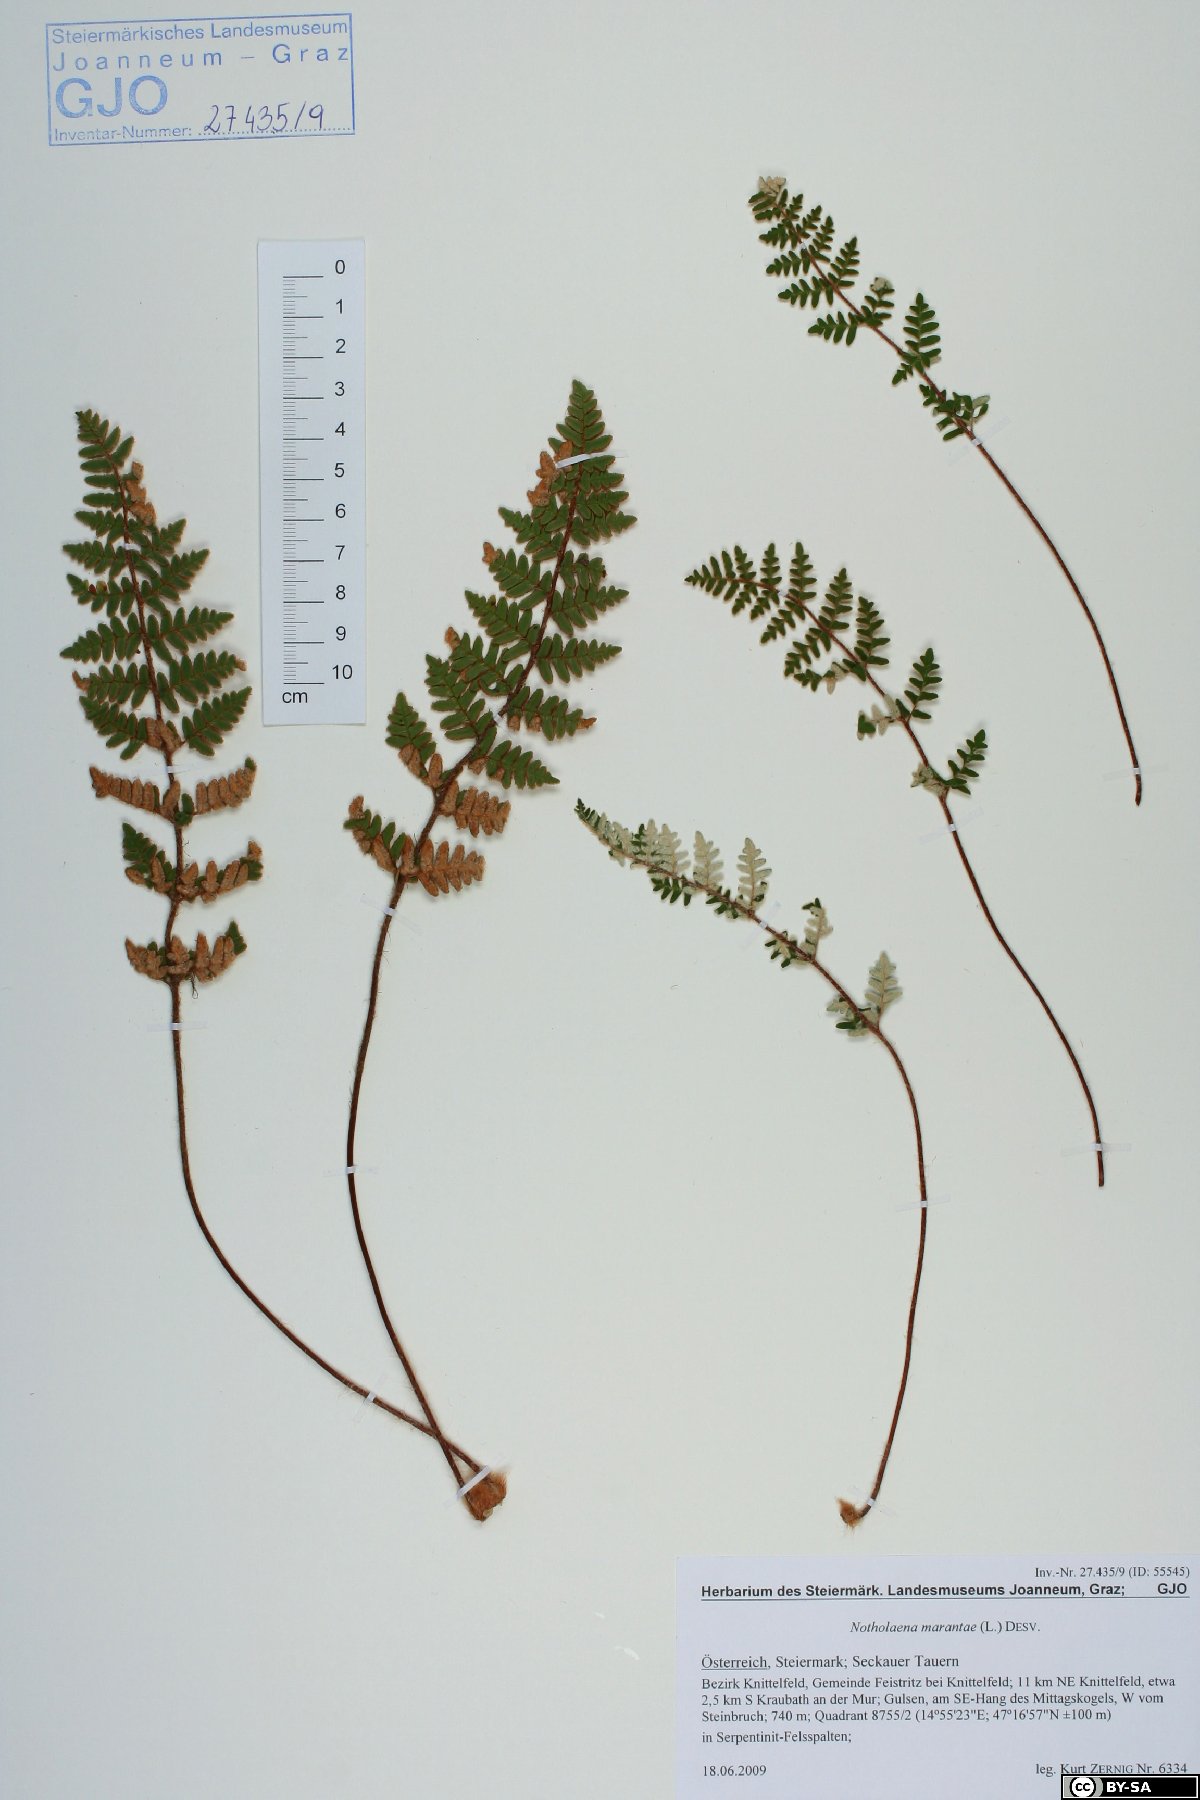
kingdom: Plantae
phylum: Tracheophyta
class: Polypodiopsida
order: Polypodiales
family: Pteridaceae
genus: Paragymnopteris
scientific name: Paragymnopteris marantae
